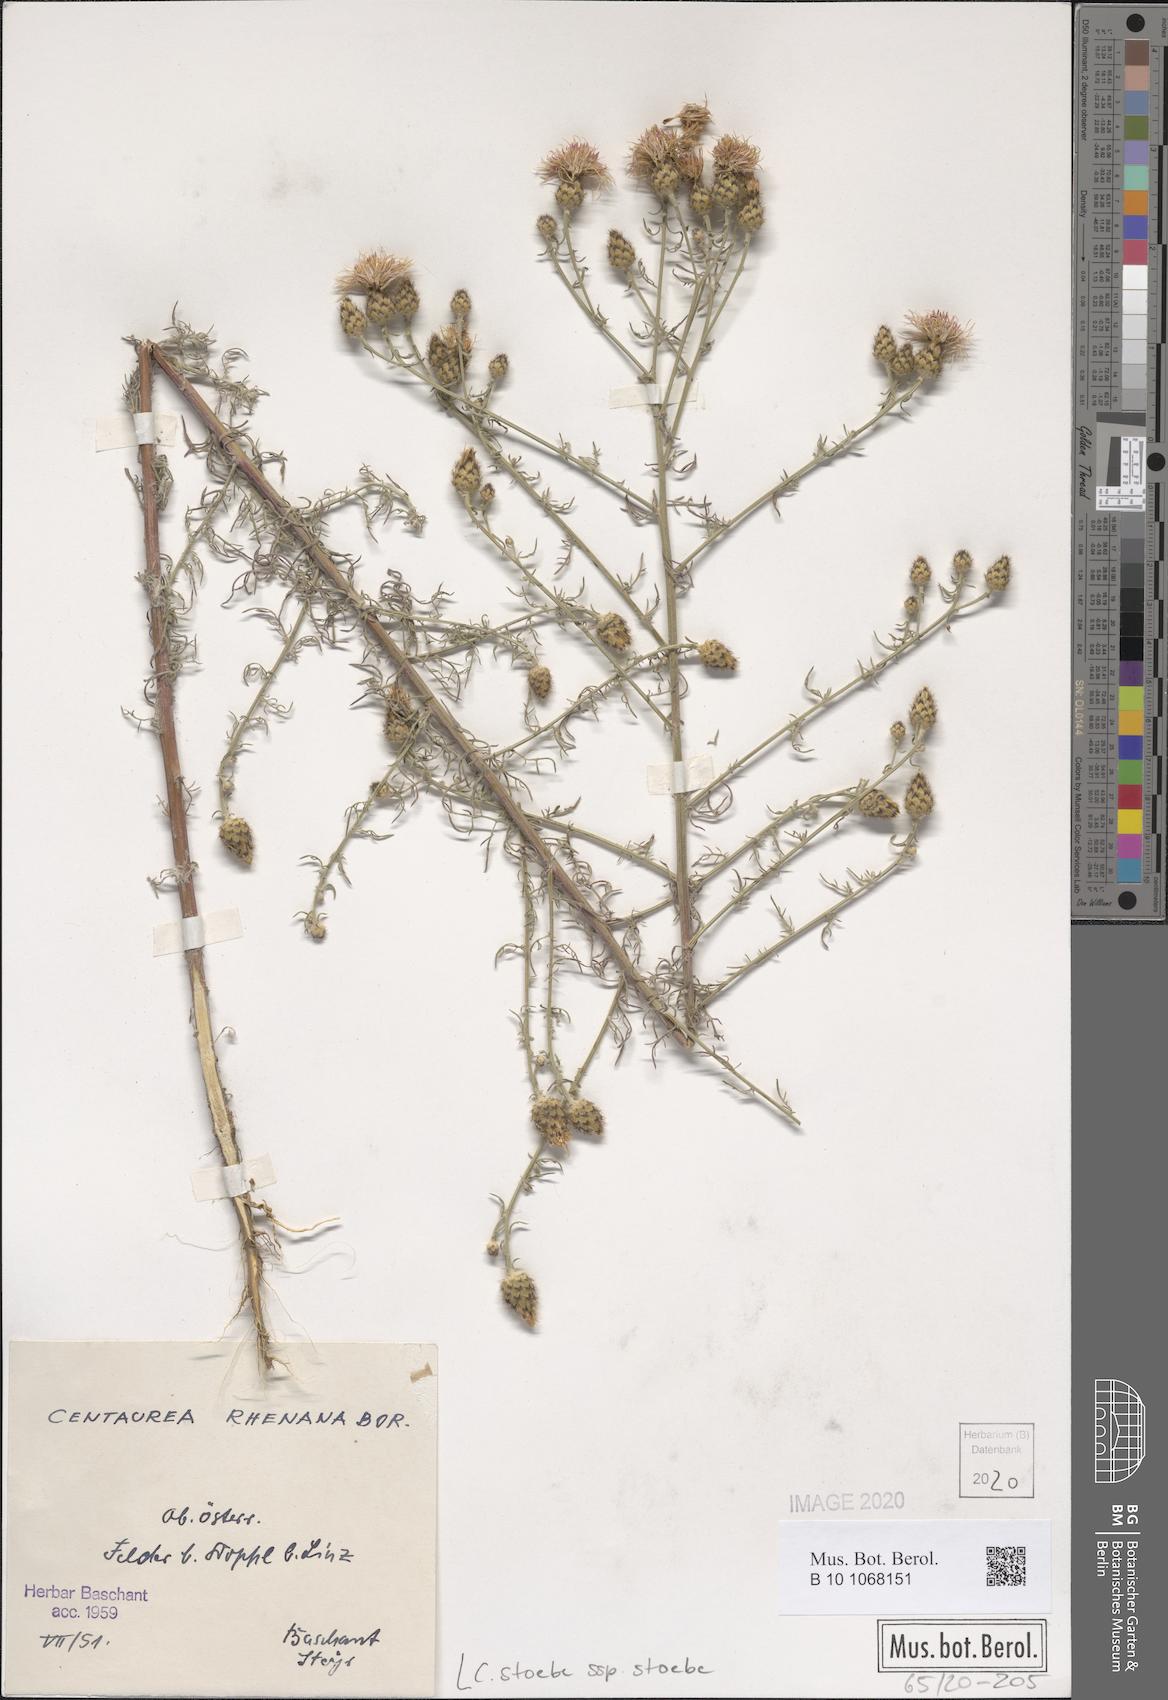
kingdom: Plantae
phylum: Tracheophyta
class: Magnoliopsida
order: Asterales
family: Asteraceae
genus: Centaurea
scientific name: Centaurea stoebe
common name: Spotted knapweed
